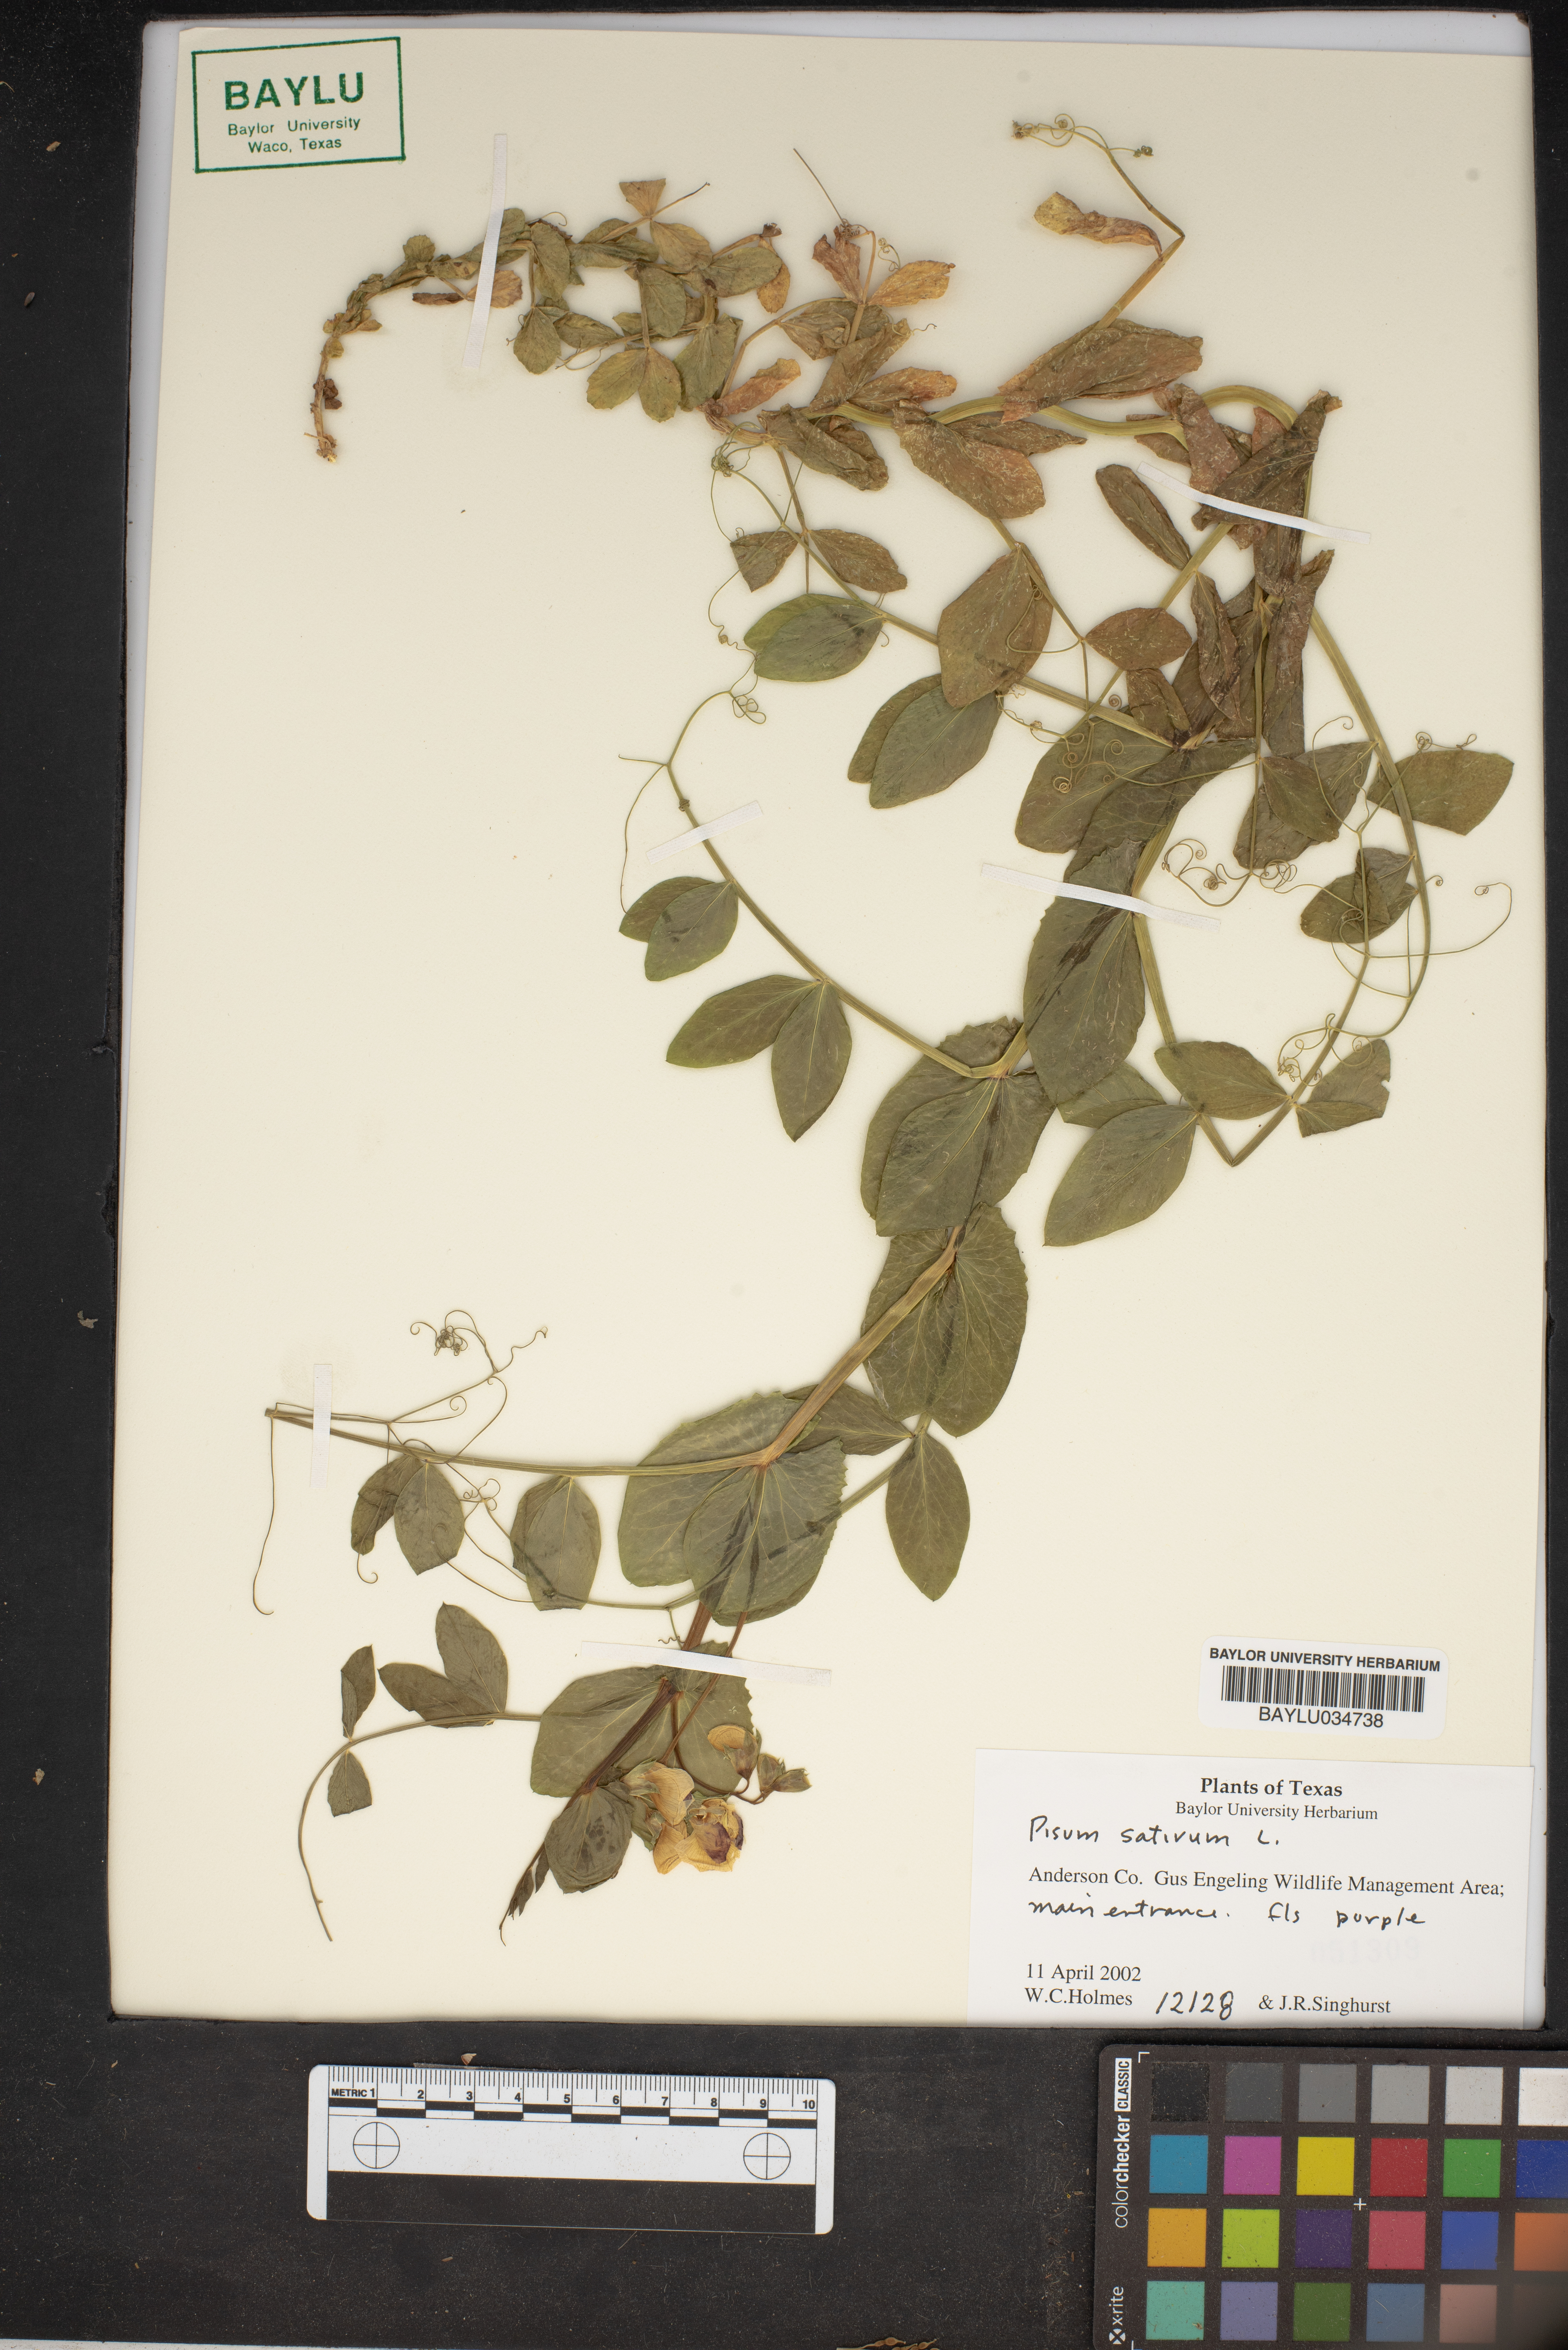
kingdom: Plantae
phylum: Tracheophyta
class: Magnoliopsida
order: Fabales
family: Fabaceae
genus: Lathyrus
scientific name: Lathyrus oleraceus
